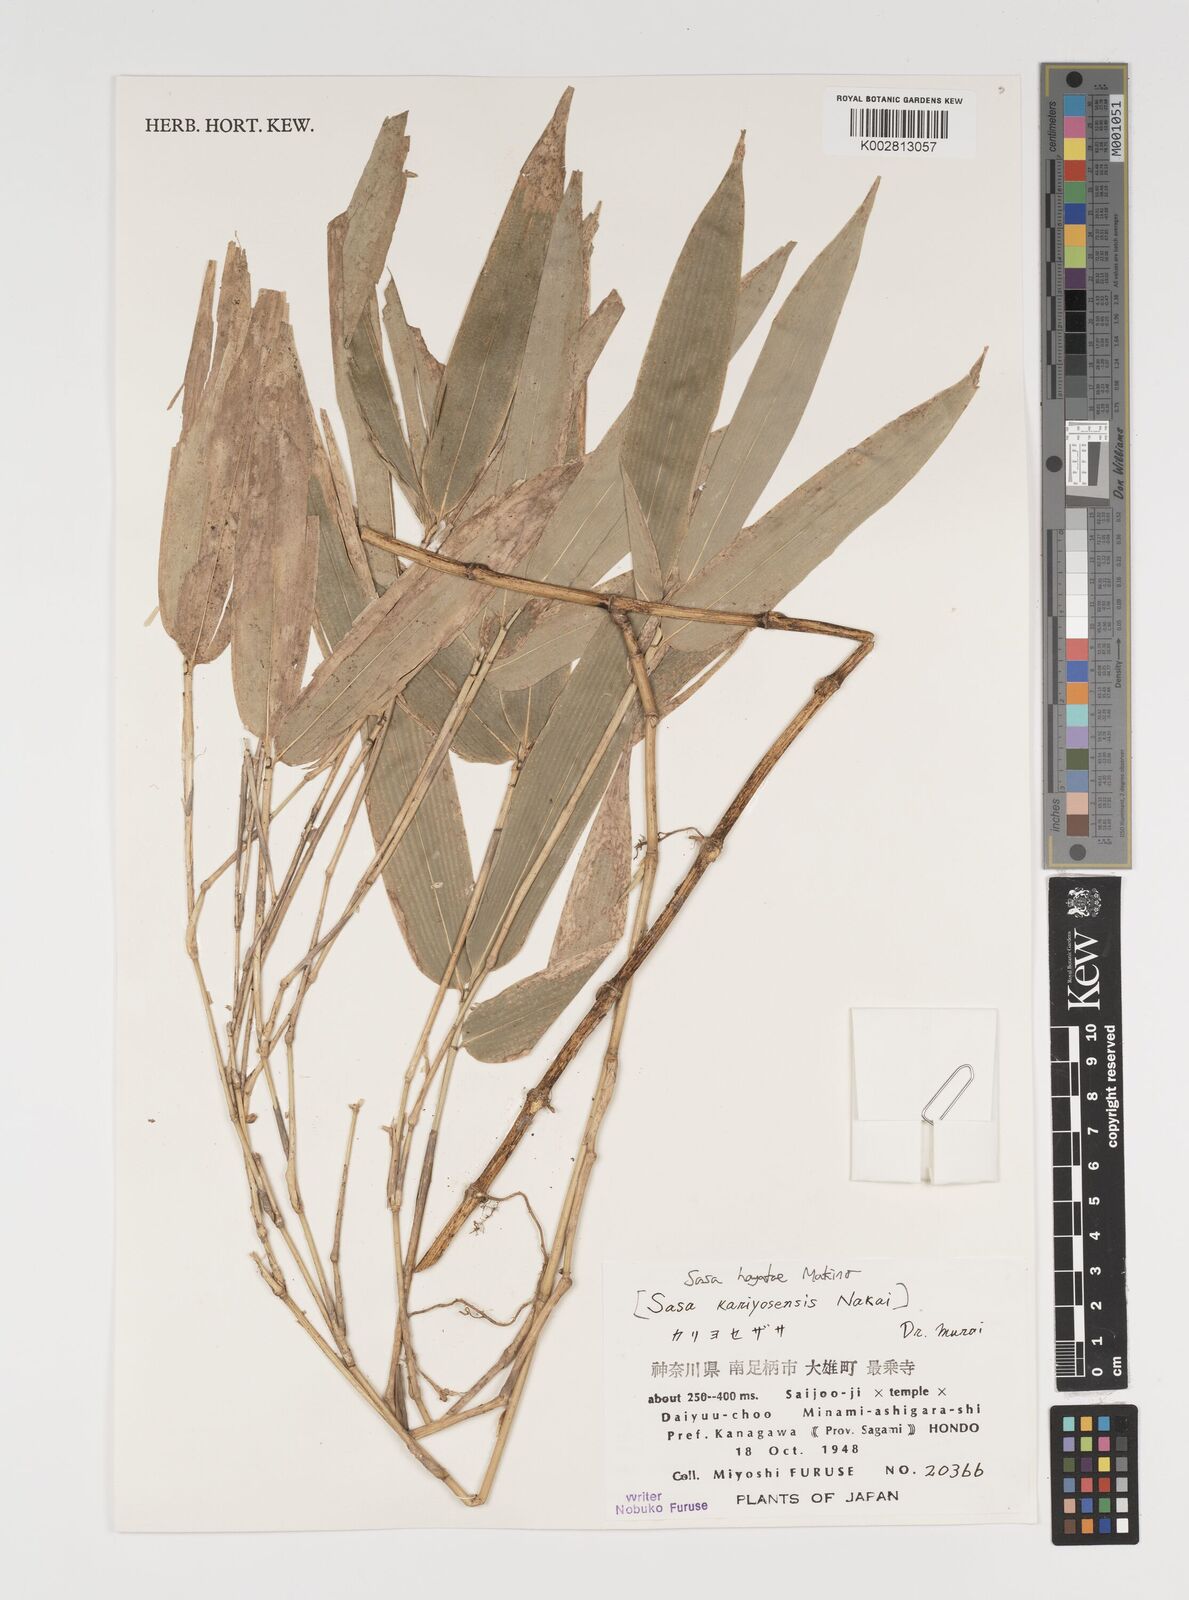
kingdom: Plantae
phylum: Tracheophyta
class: Liliopsida
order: Poales
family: Poaceae
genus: Sasa
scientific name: Sasa hayatae
